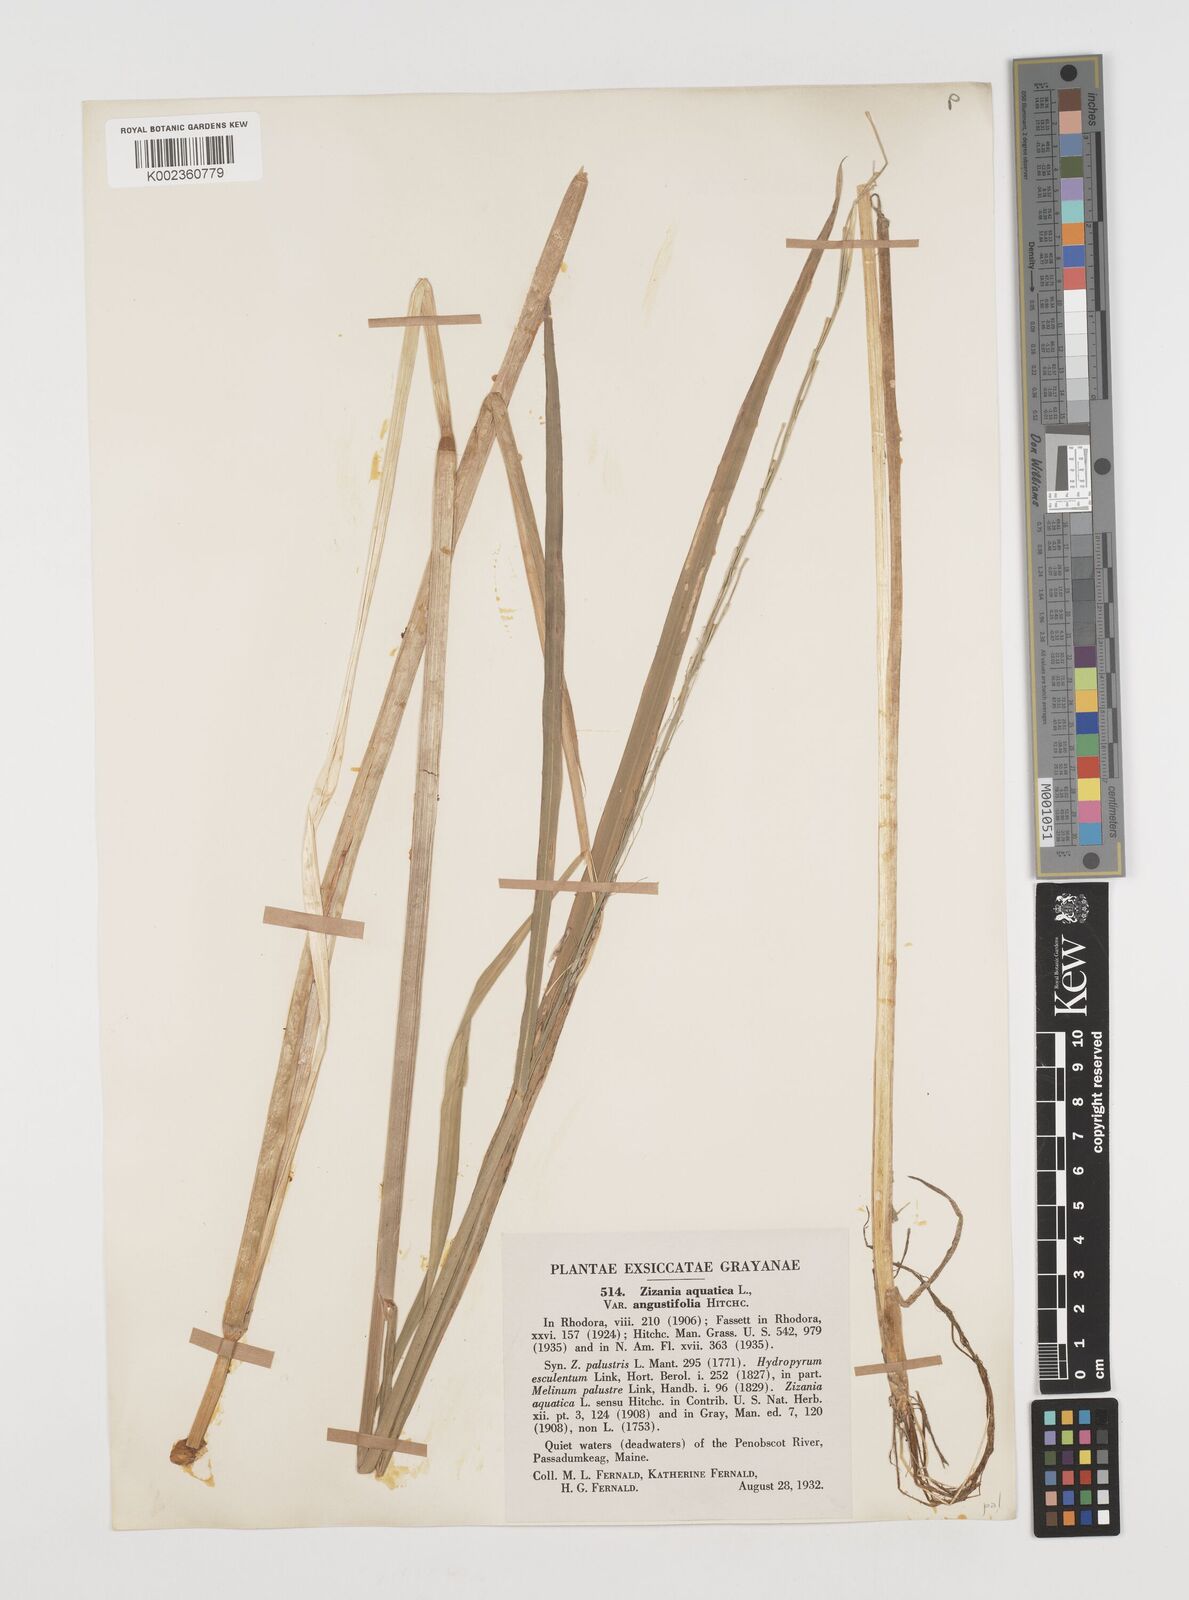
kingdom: Plantae
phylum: Tracheophyta
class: Liliopsida
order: Poales
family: Poaceae
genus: Zizania
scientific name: Zizania palustris
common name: Northern wild rice
